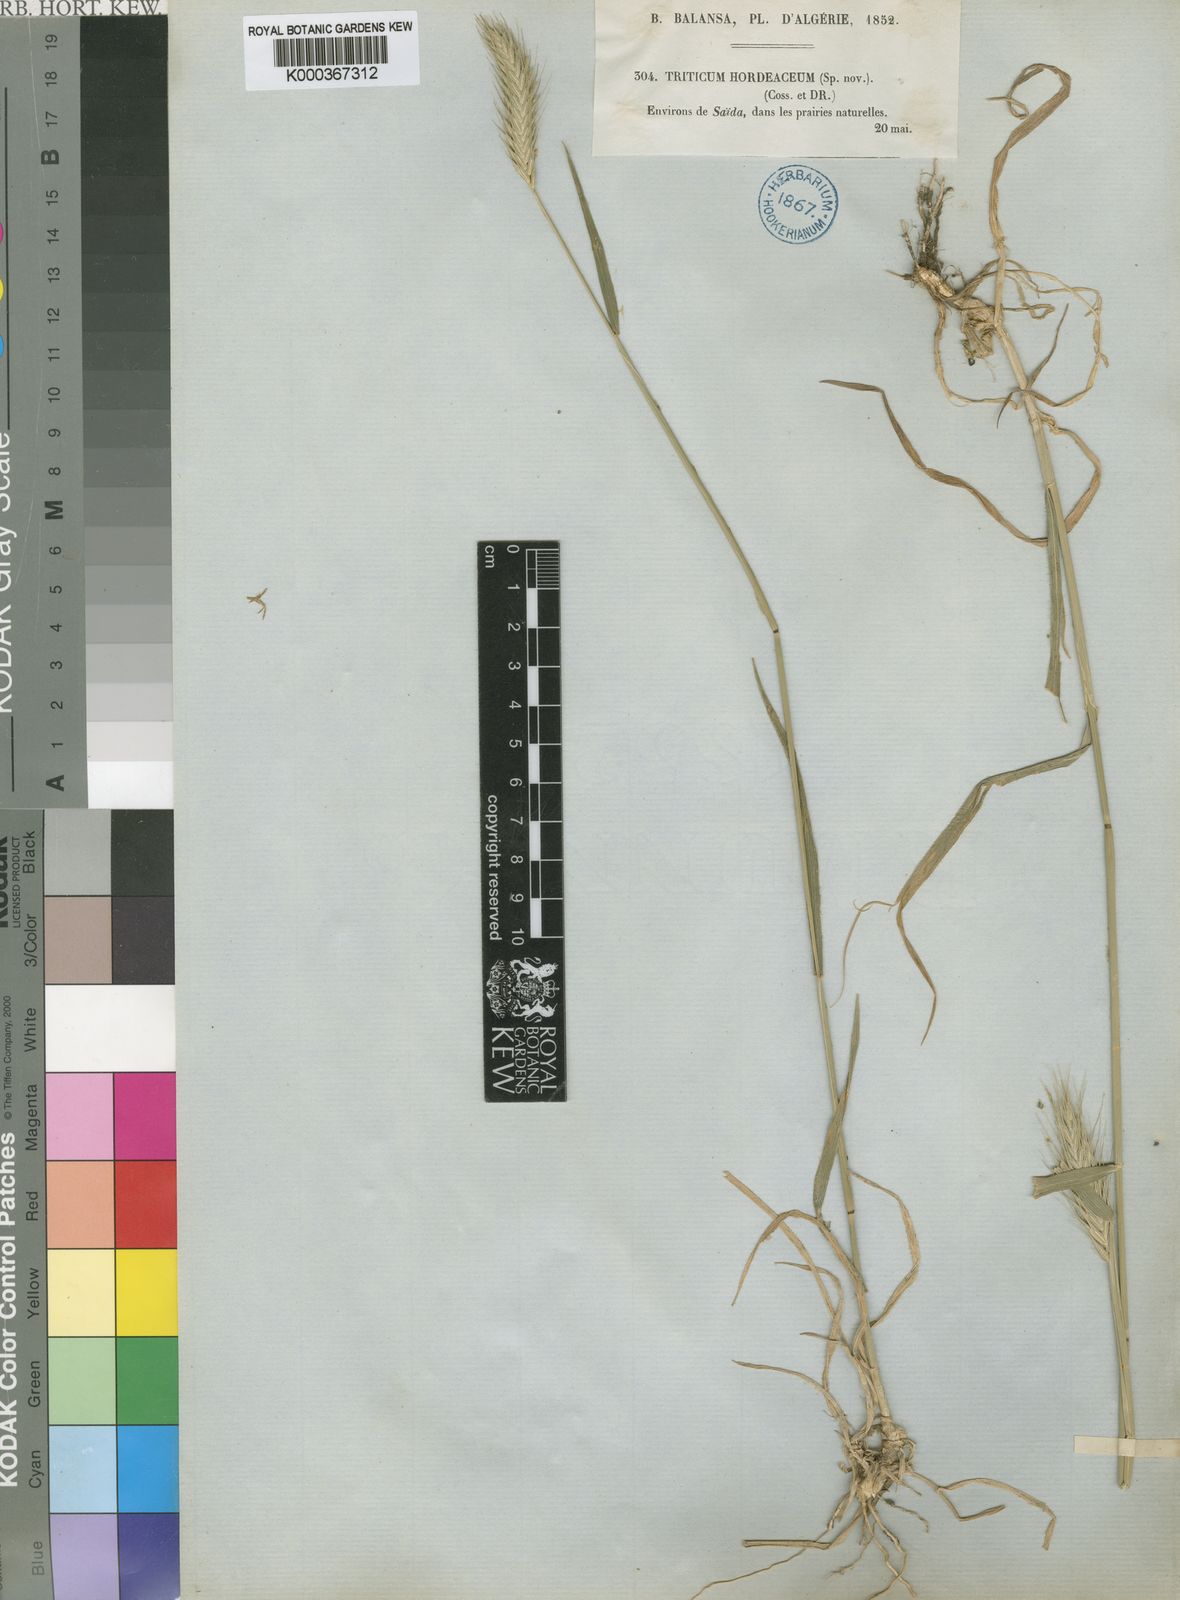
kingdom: Plantae
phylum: Tracheophyta
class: Liliopsida
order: Poales
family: Poaceae
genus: Dasypyrum
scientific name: Dasypyrum hordeaceum
